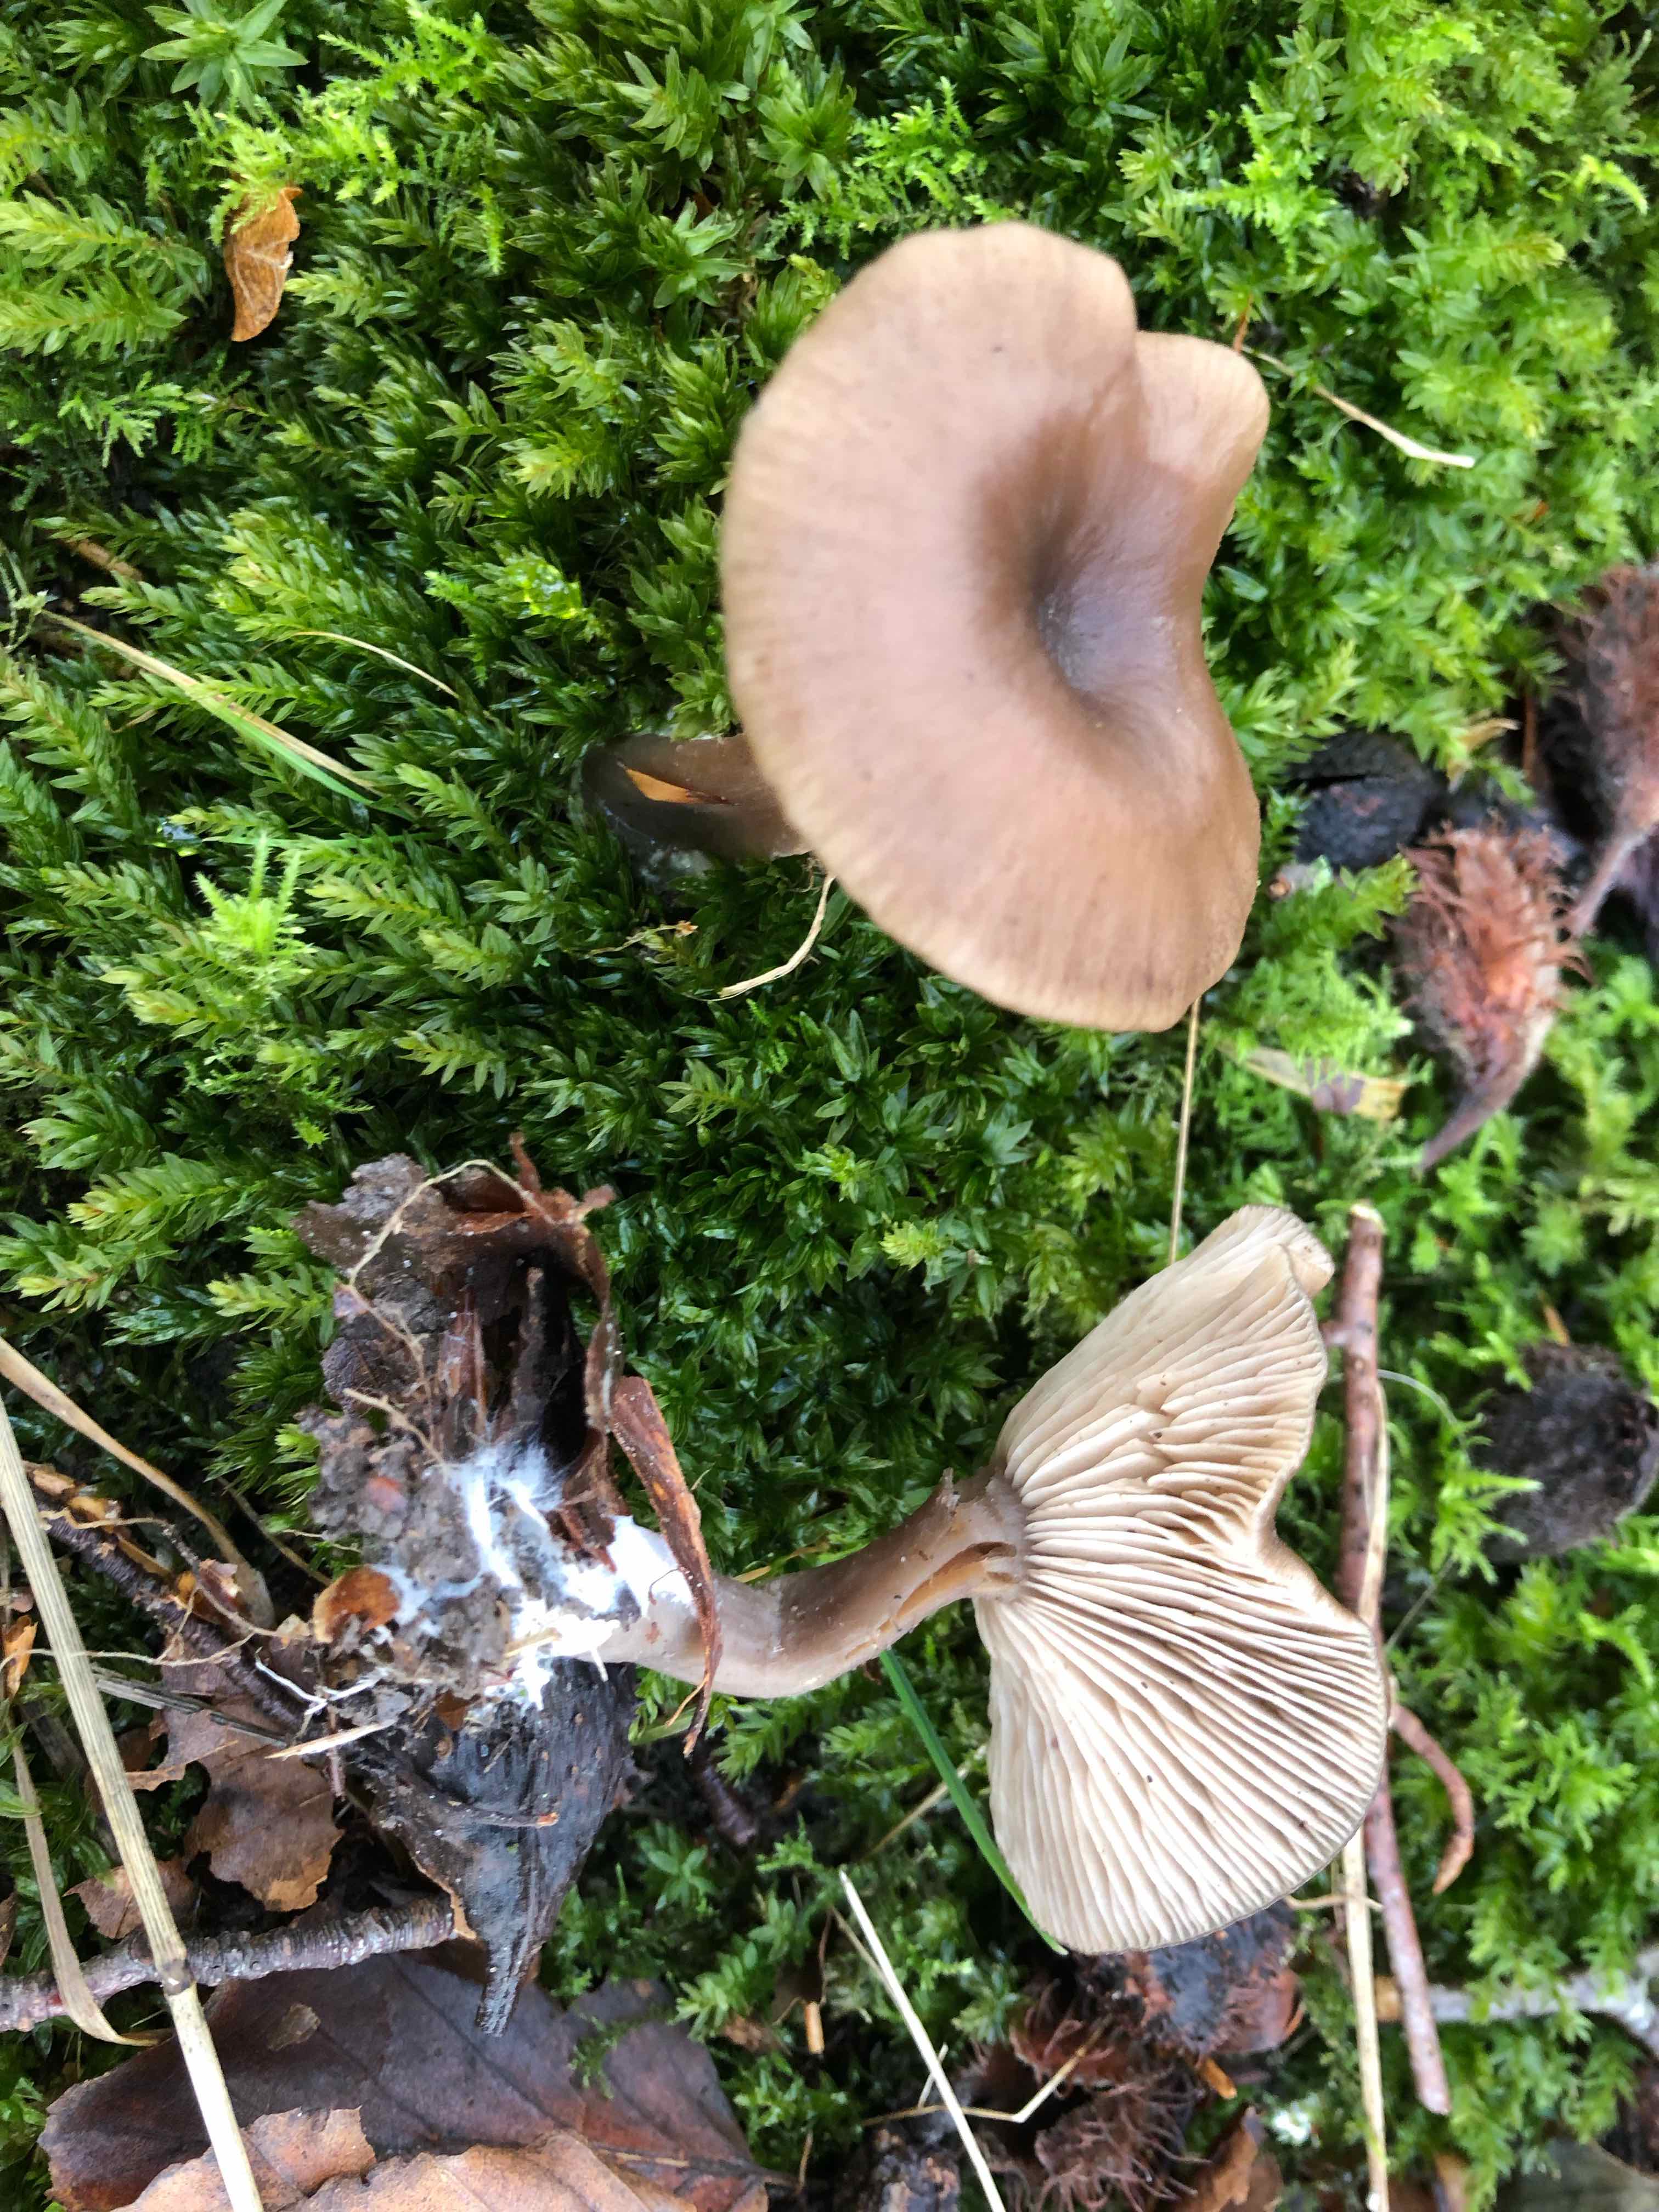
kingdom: Fungi
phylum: Basidiomycota
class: Agaricomycetes
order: Agaricales
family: Pseudoclitocybaceae
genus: Pseudoclitocybe
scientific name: Pseudoclitocybe cyathiformis
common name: almindelig bægertragthat
